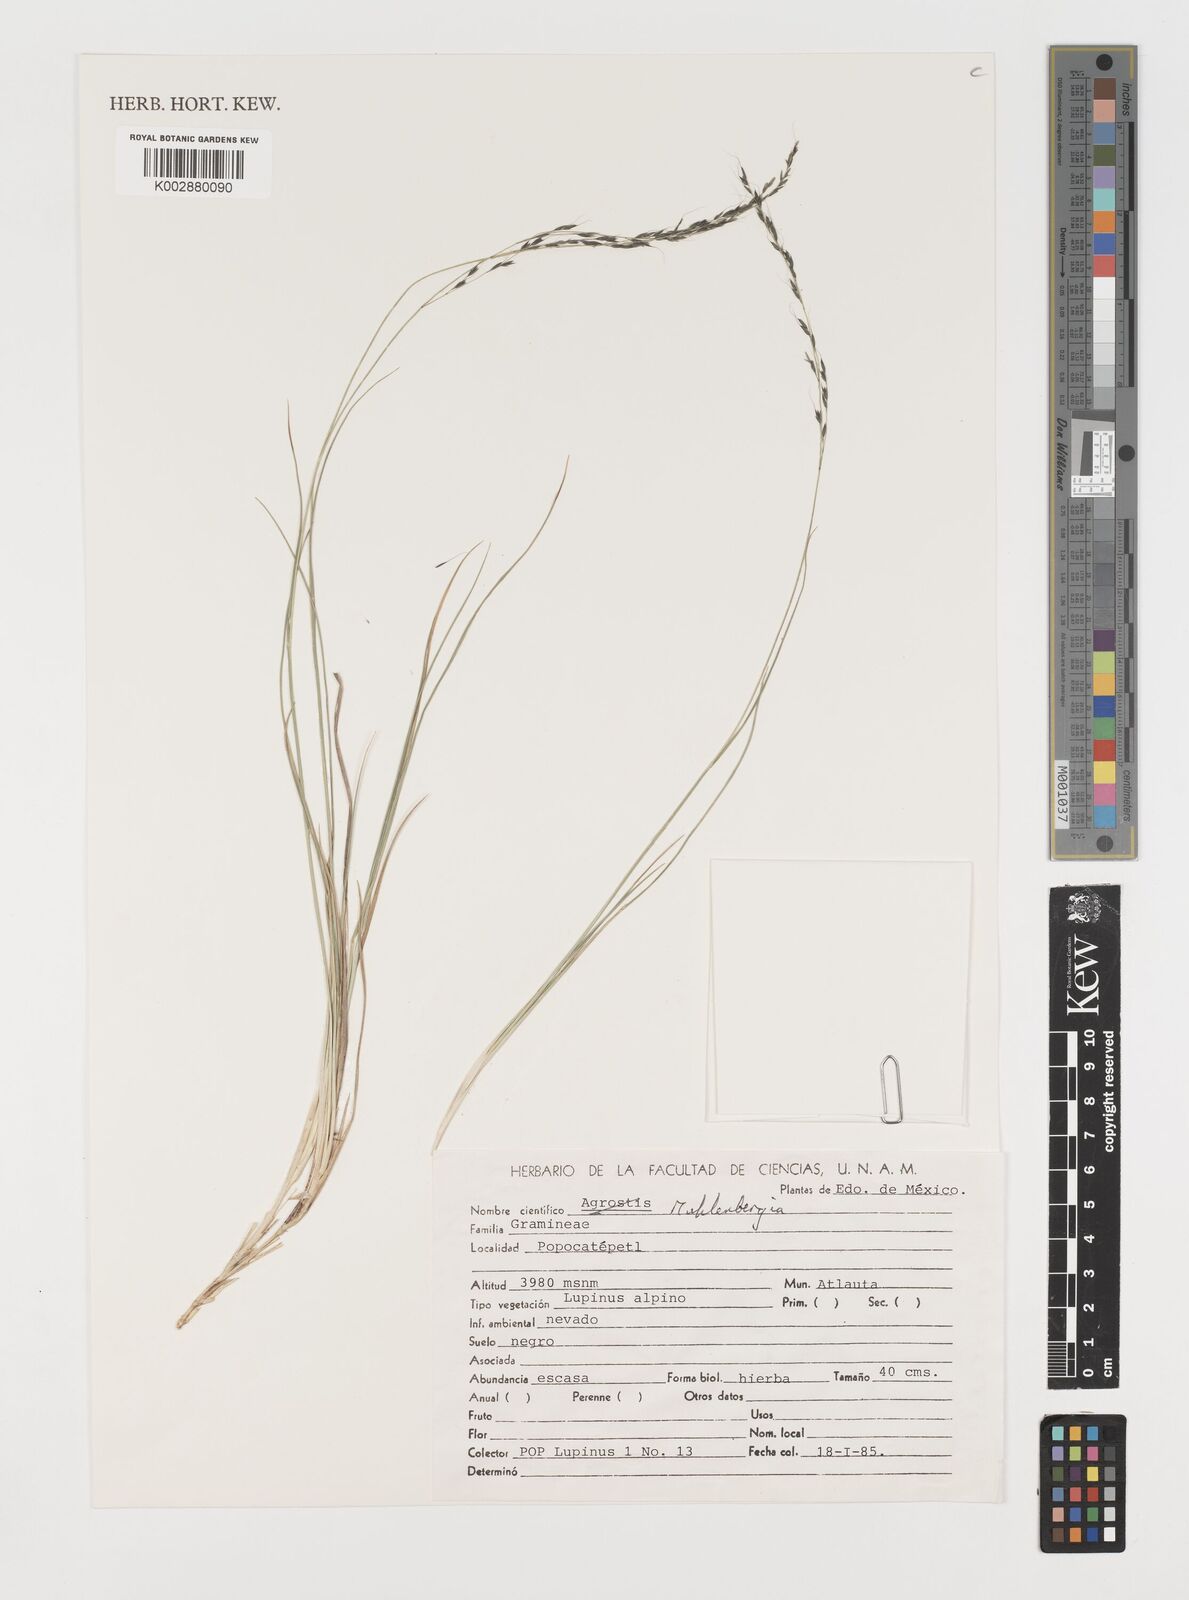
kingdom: Plantae
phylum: Tracheophyta
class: Liliopsida
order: Poales
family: Poaceae
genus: Muhlenbergia
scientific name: Muhlenbergia
